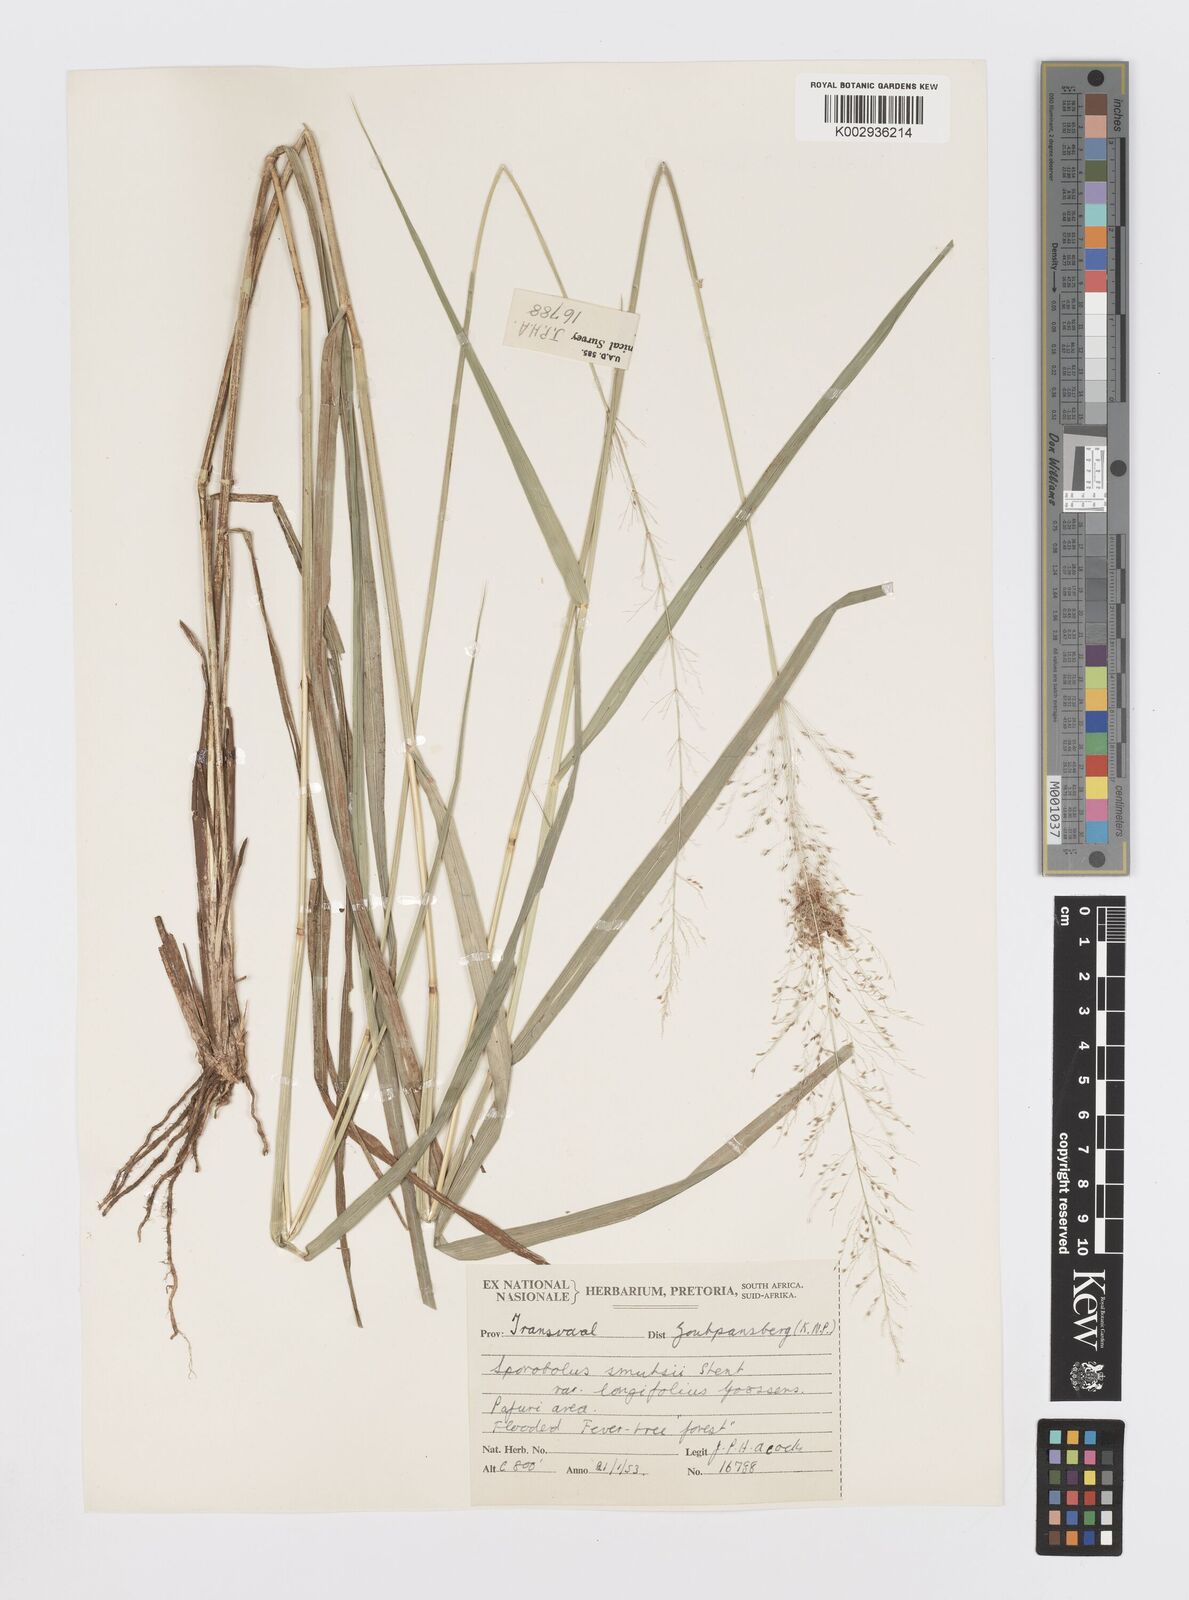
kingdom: Plantae
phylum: Tracheophyta
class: Liliopsida
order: Poales
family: Poaceae
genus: Sporobolus
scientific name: Sporobolus ioclados
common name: Pan dropseed
